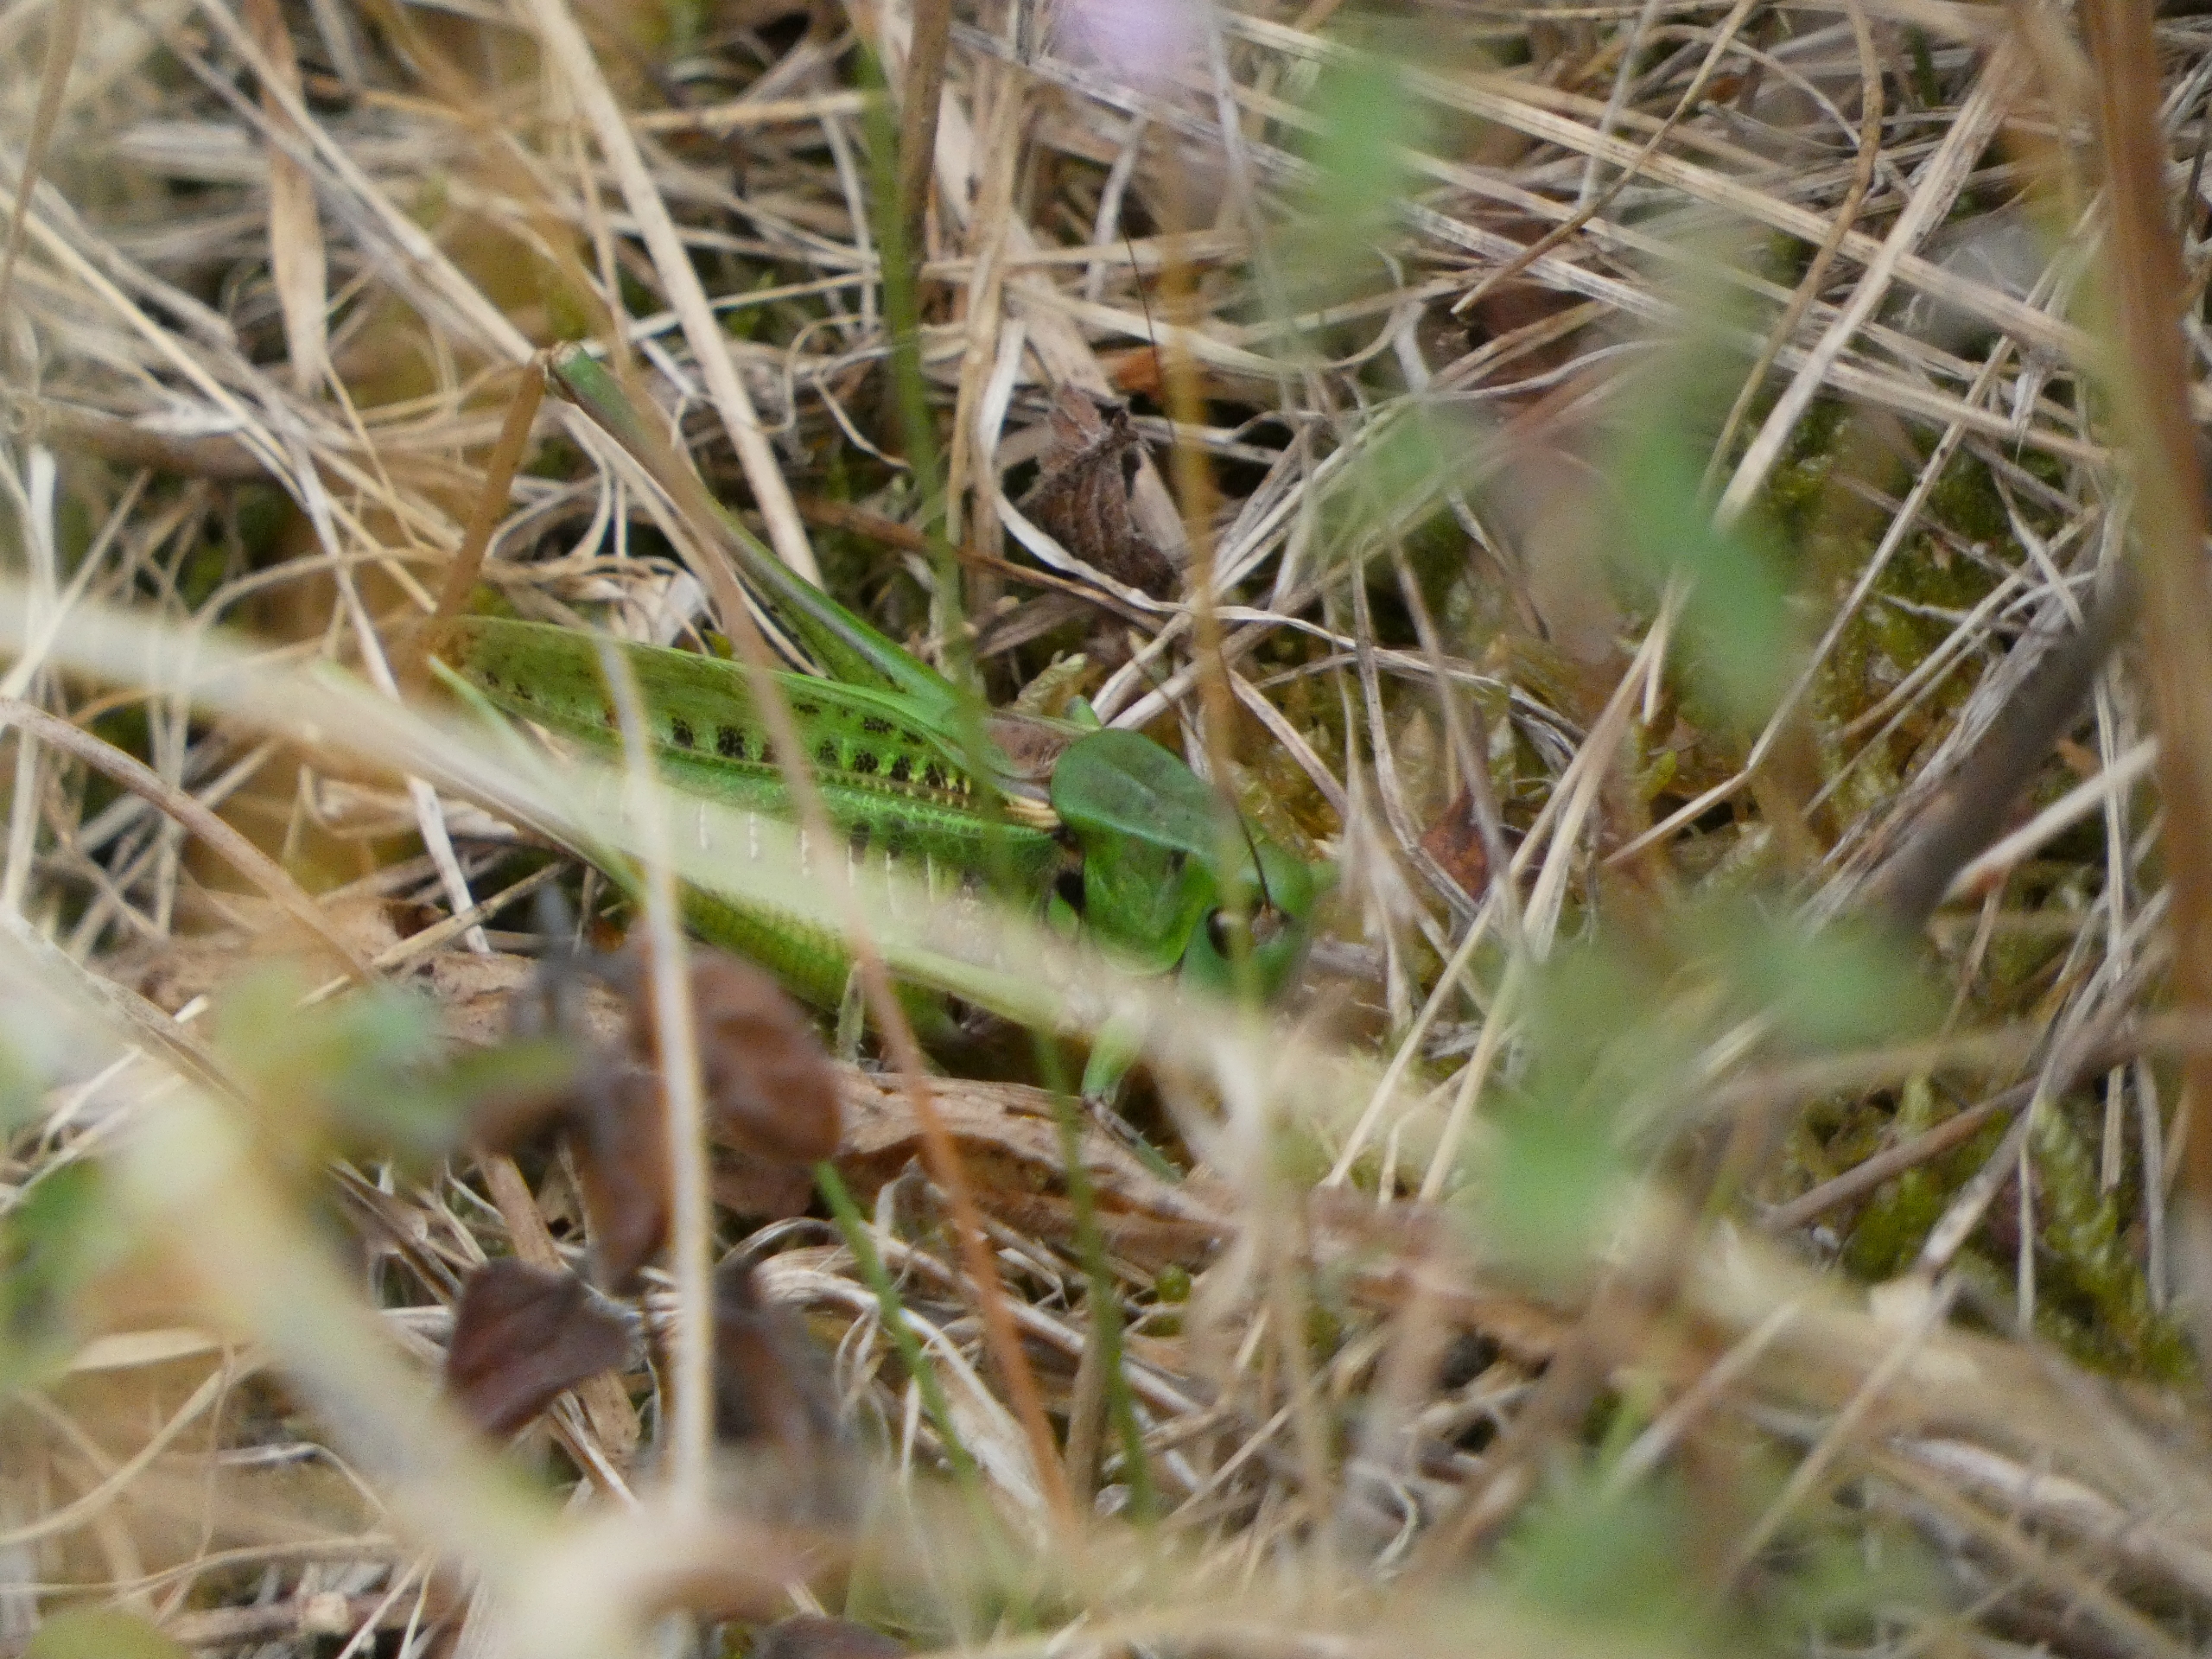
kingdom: Animalia
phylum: Arthropoda
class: Insecta
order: Orthoptera
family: Tettigoniidae
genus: Decticus
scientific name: Decticus verrucivorus
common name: Vortebider
